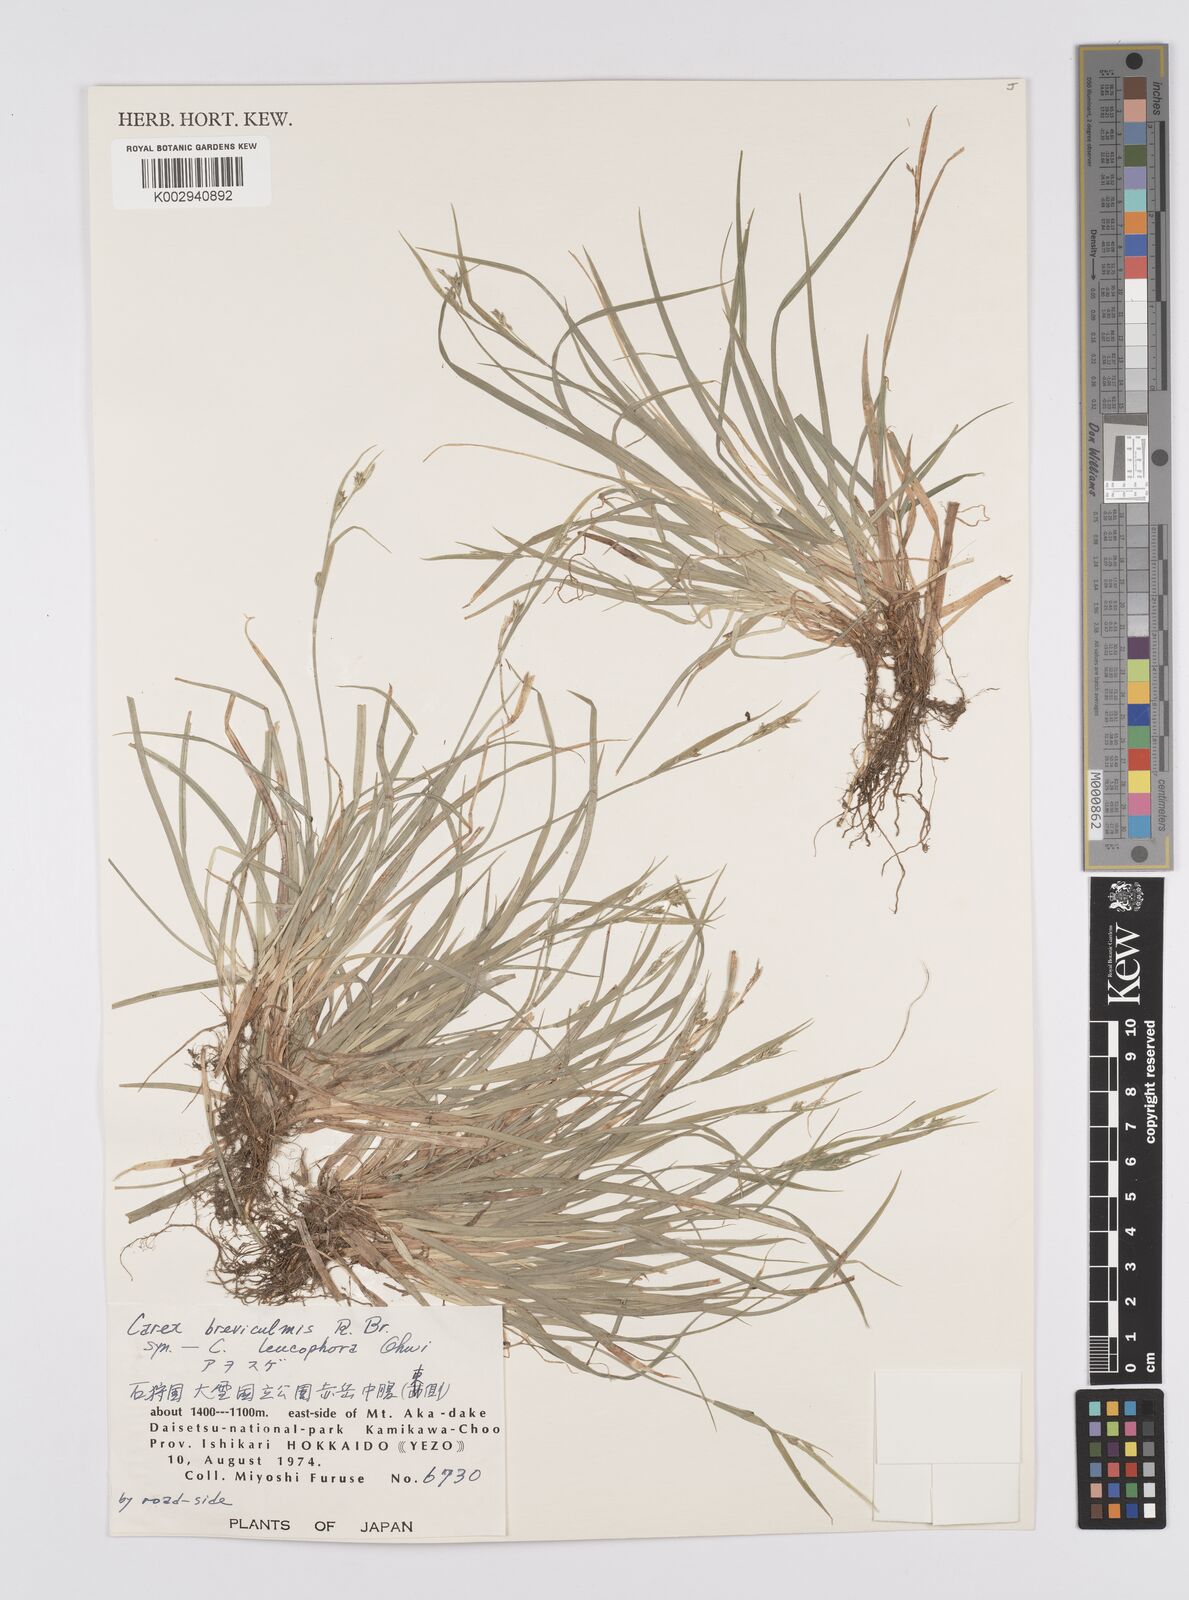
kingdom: Plantae
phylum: Tracheophyta
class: Liliopsida
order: Poales
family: Cyperaceae
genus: Carex
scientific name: Carex breviculmis
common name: Asian shortstem sedge
